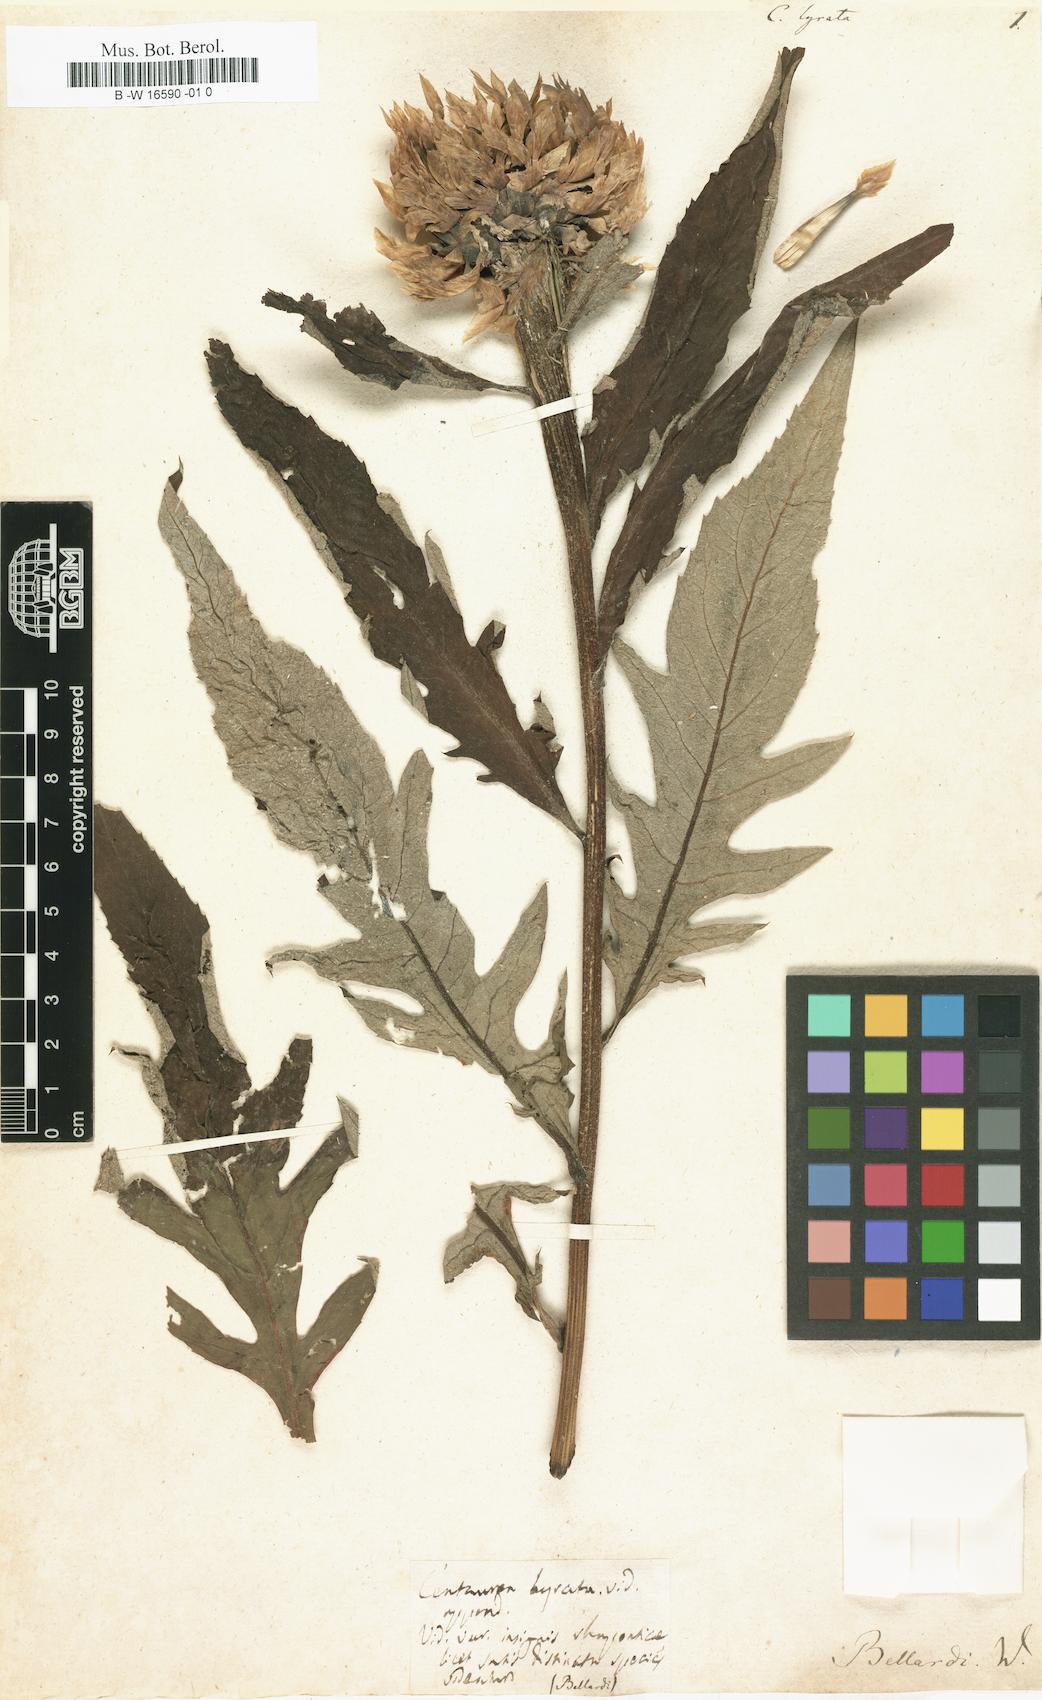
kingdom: Plantae
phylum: Tracheophyta
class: Magnoliopsida
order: Asterales
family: Asteraceae
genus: Centaurea
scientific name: Centaurea lyrata
